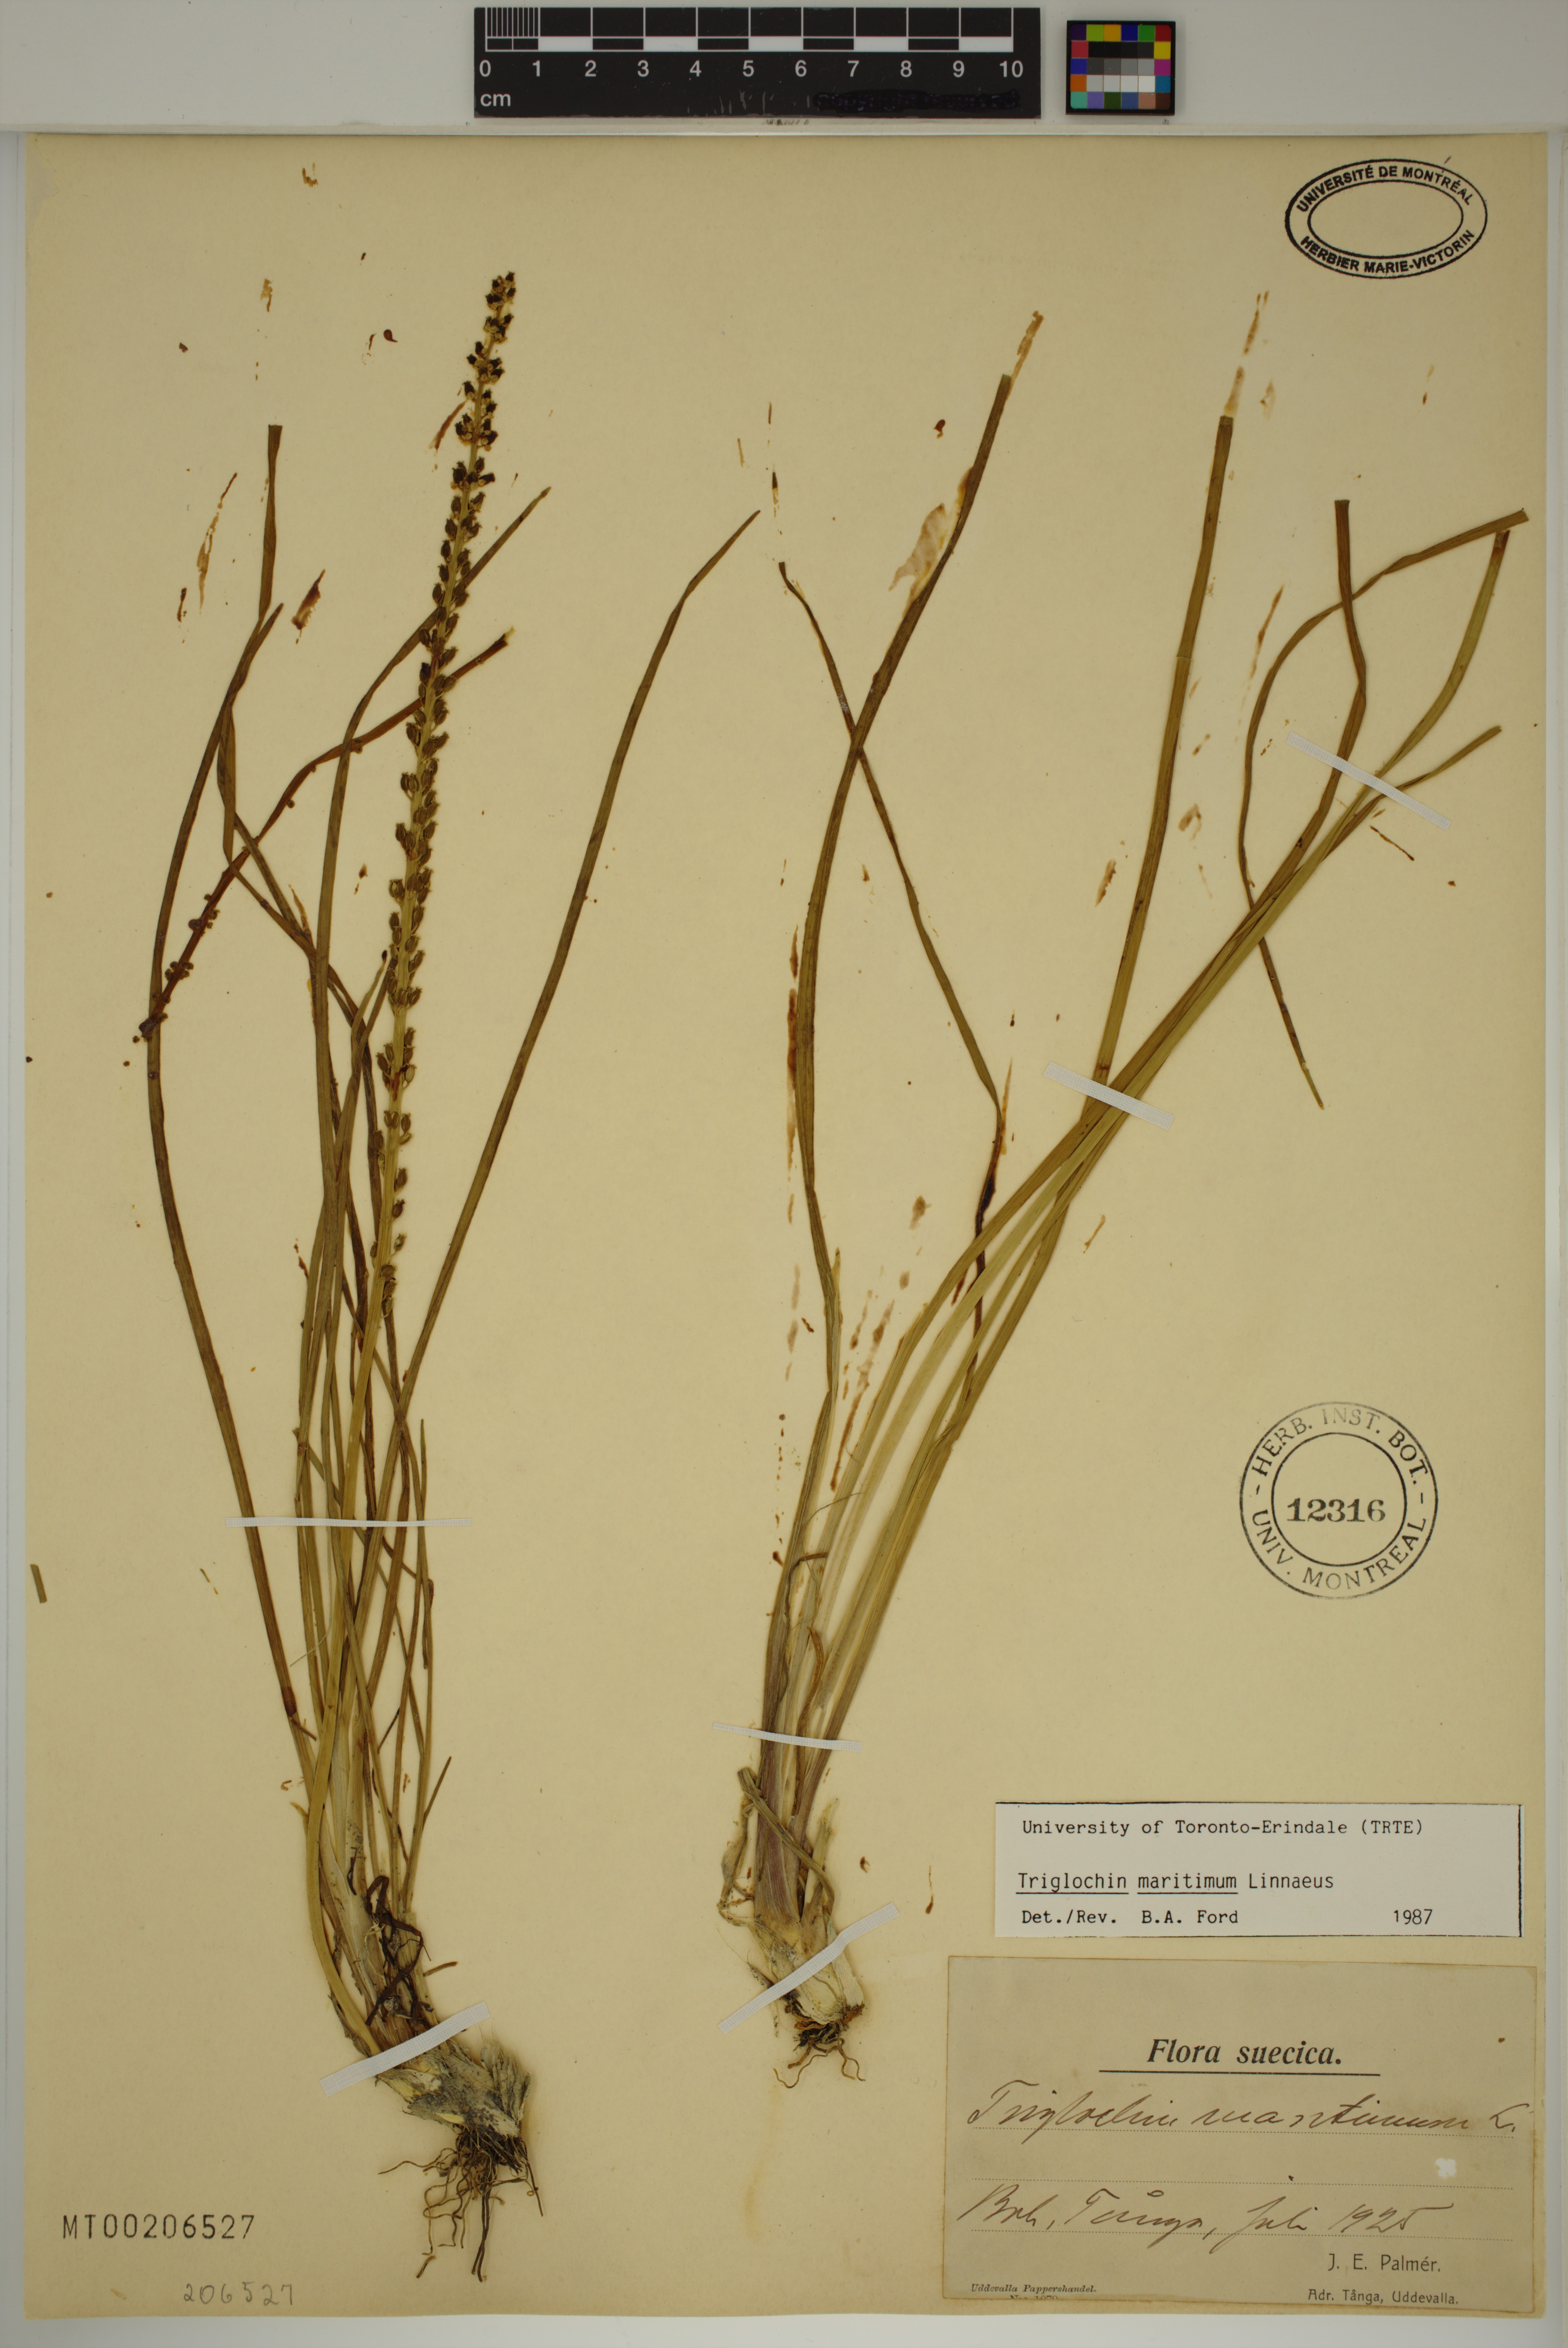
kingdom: Plantae
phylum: Tracheophyta
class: Liliopsida
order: Alismatales
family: Juncaginaceae
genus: Triglochin
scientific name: Triglochin maritima
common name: Sea arrowgrass
